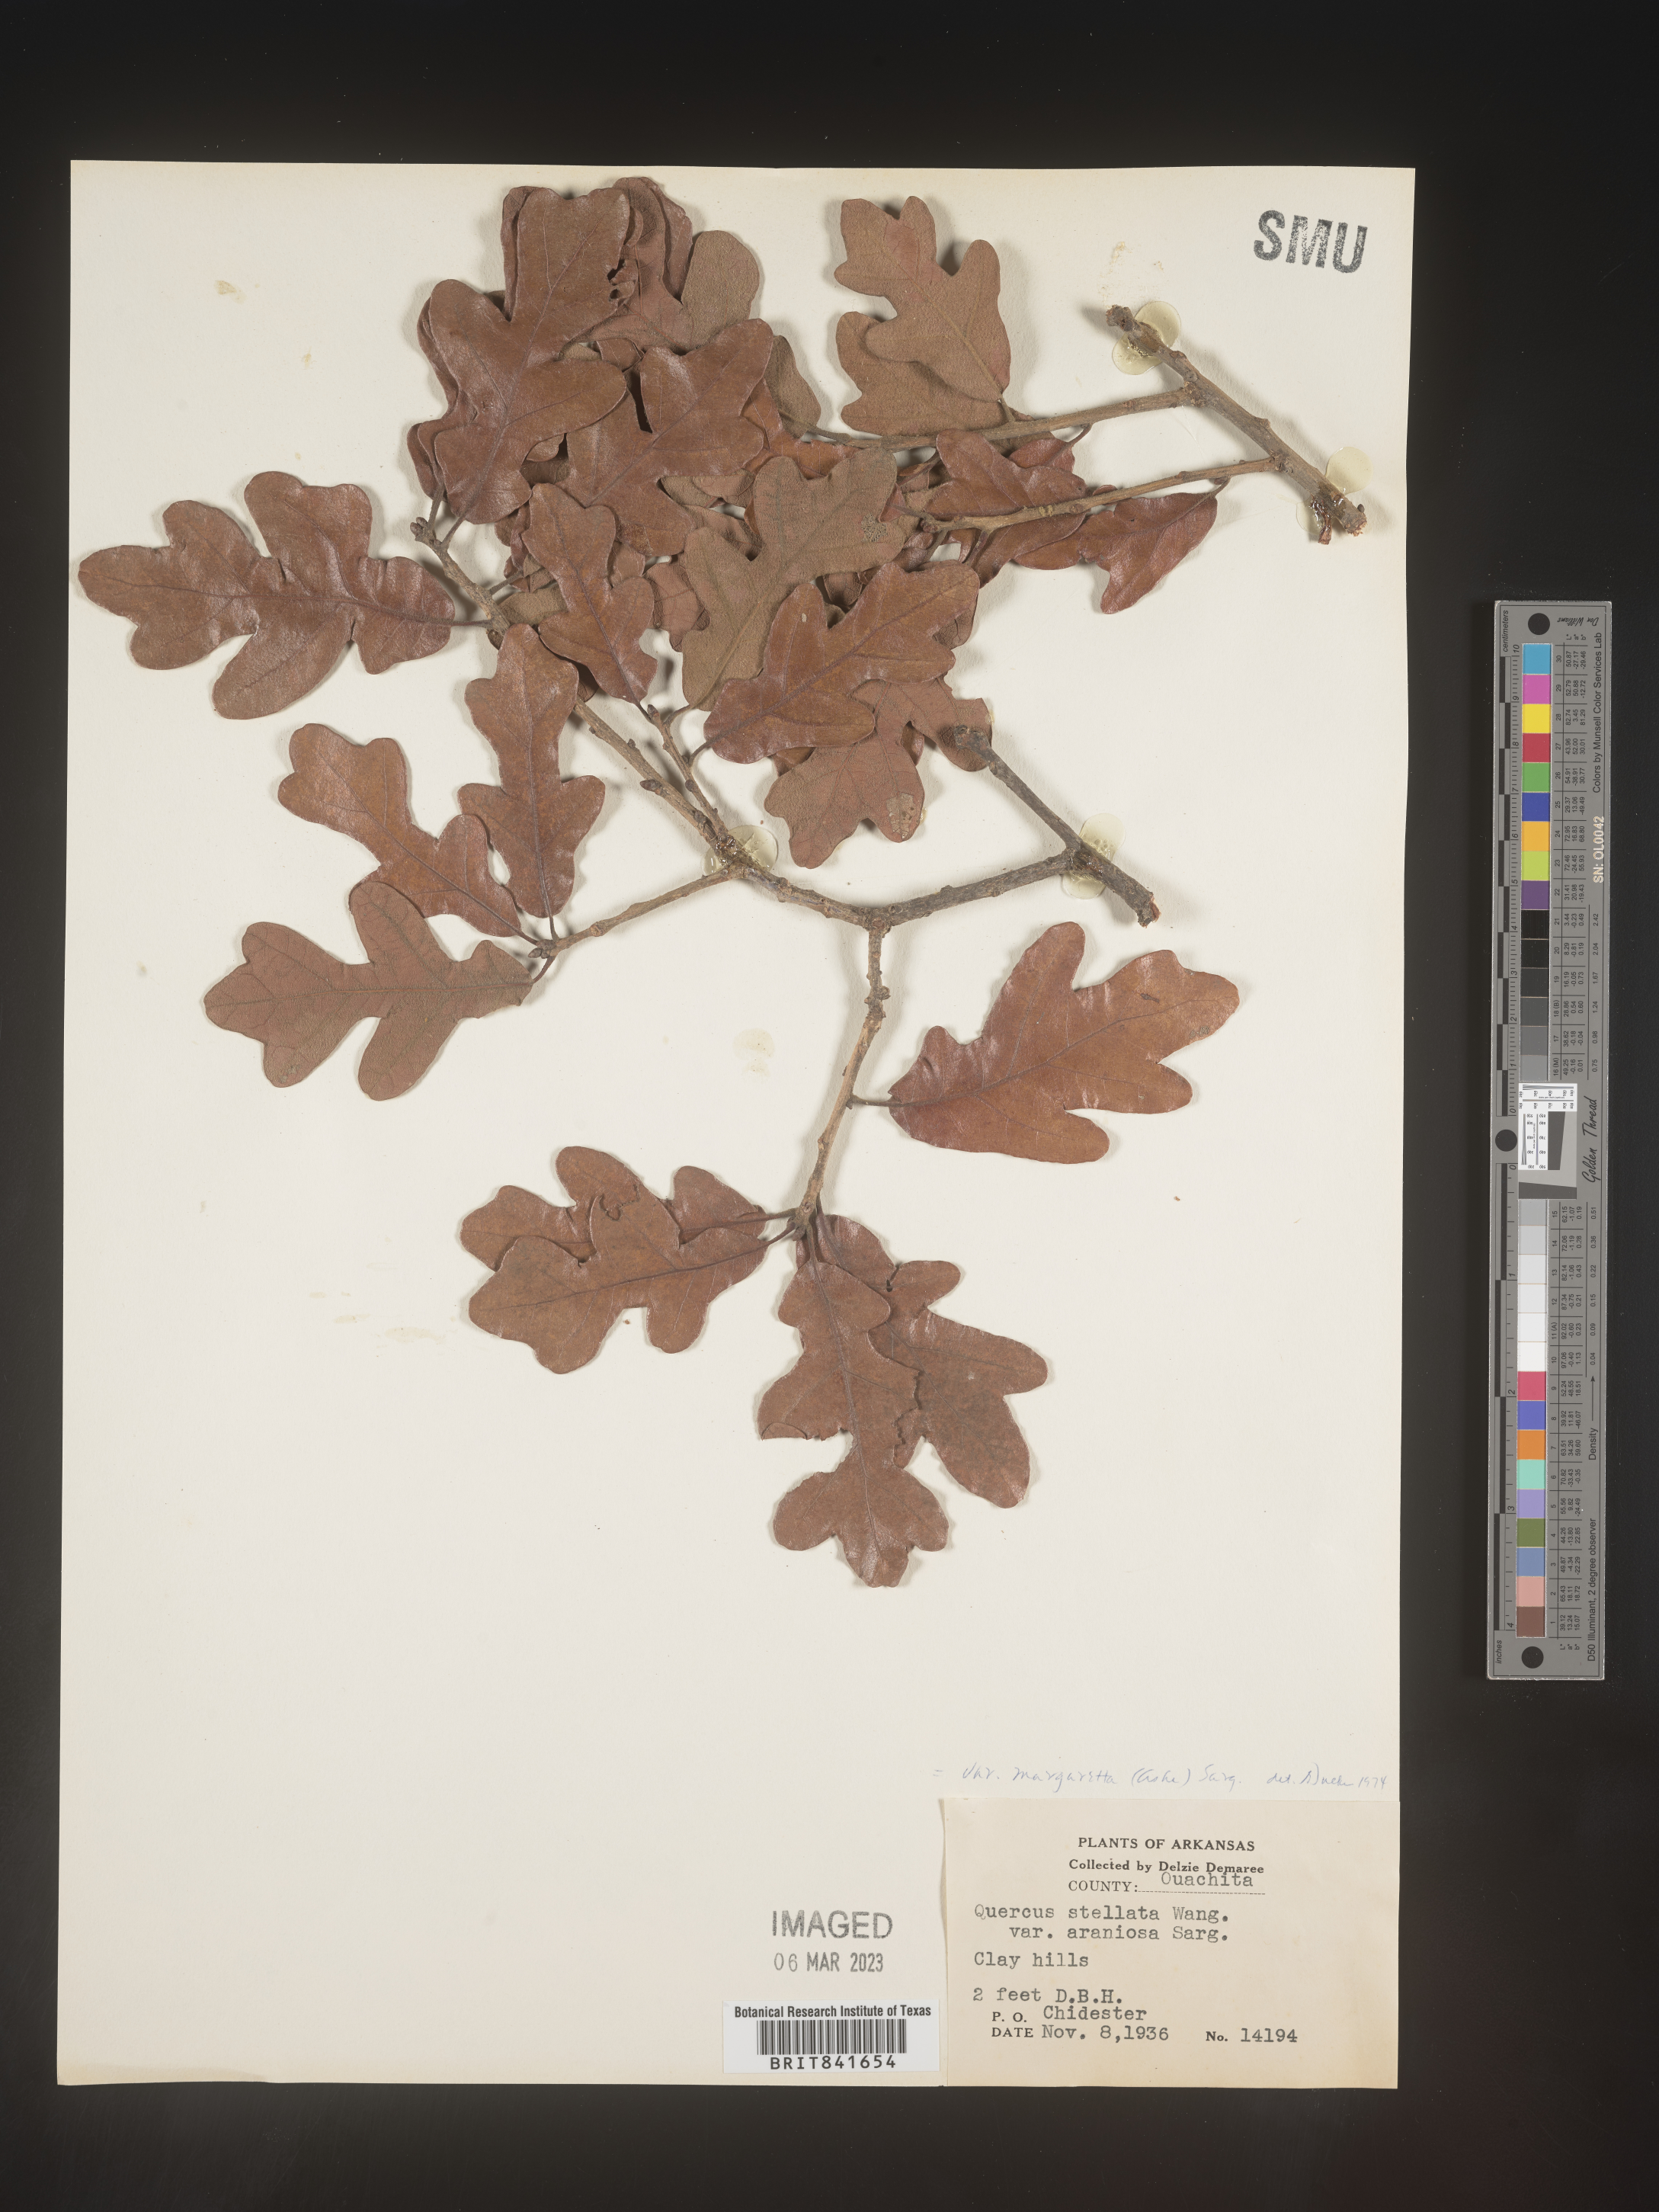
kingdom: Plantae
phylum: Tracheophyta
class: Magnoliopsida
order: Fagales
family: Fagaceae
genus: Quercus
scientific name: Quercus stellata
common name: Post oak
